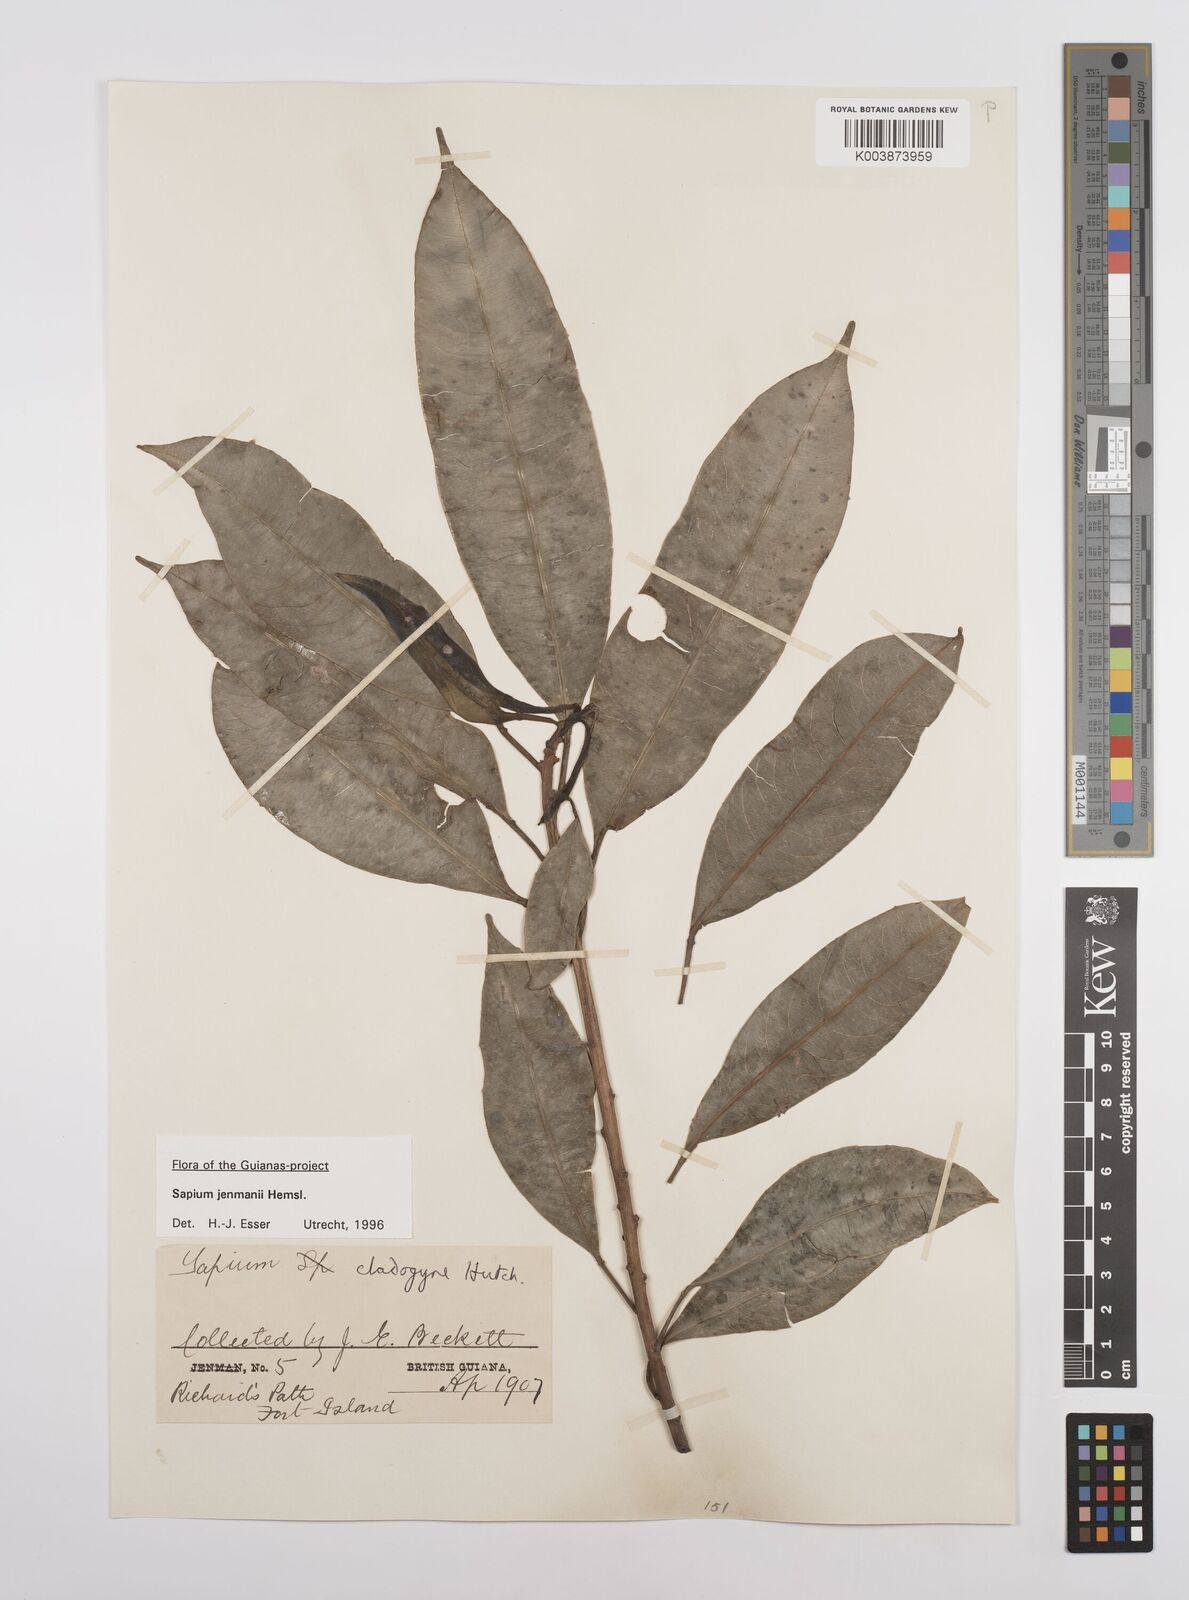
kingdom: Plantae
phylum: Tracheophyta
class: Magnoliopsida
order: Malpighiales
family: Euphorbiaceae
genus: Sapium
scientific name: Sapium jenmannii
